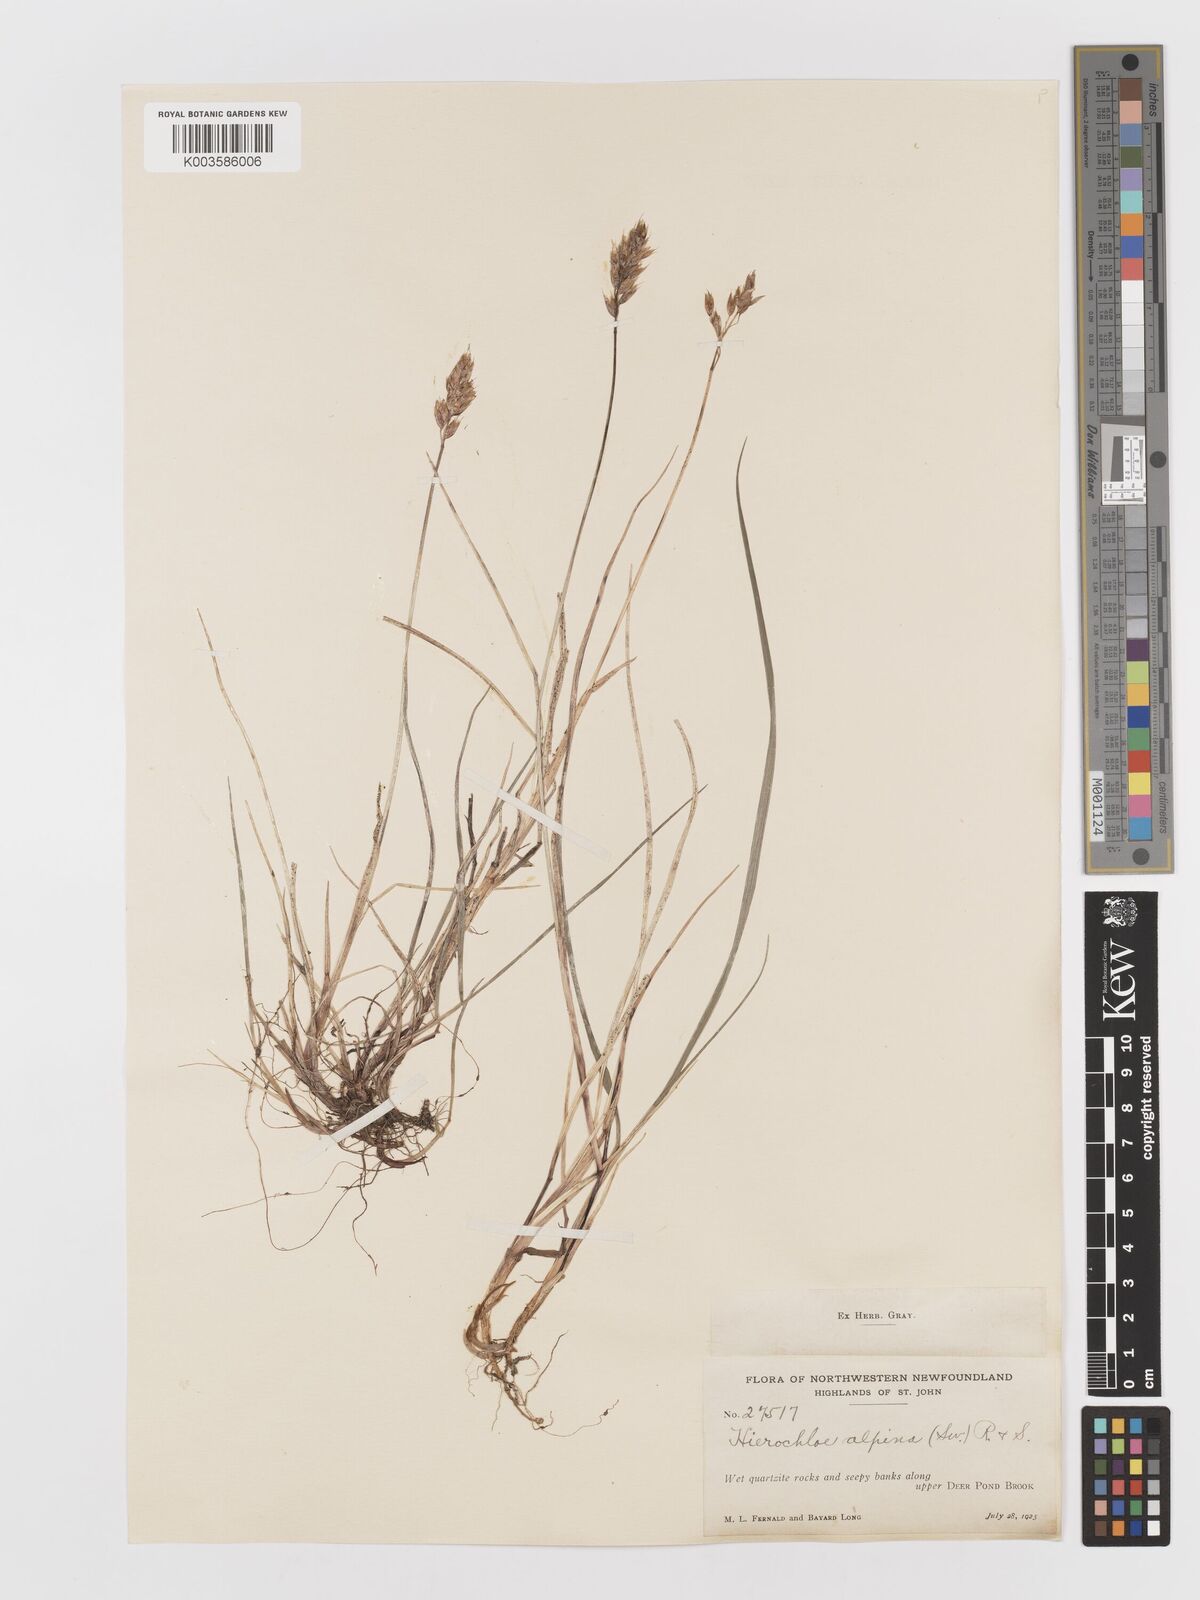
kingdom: Plantae
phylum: Tracheophyta
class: Liliopsida
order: Poales
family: Poaceae
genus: Anthoxanthum
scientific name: Anthoxanthum monticola
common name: Alpine sweetgrass
